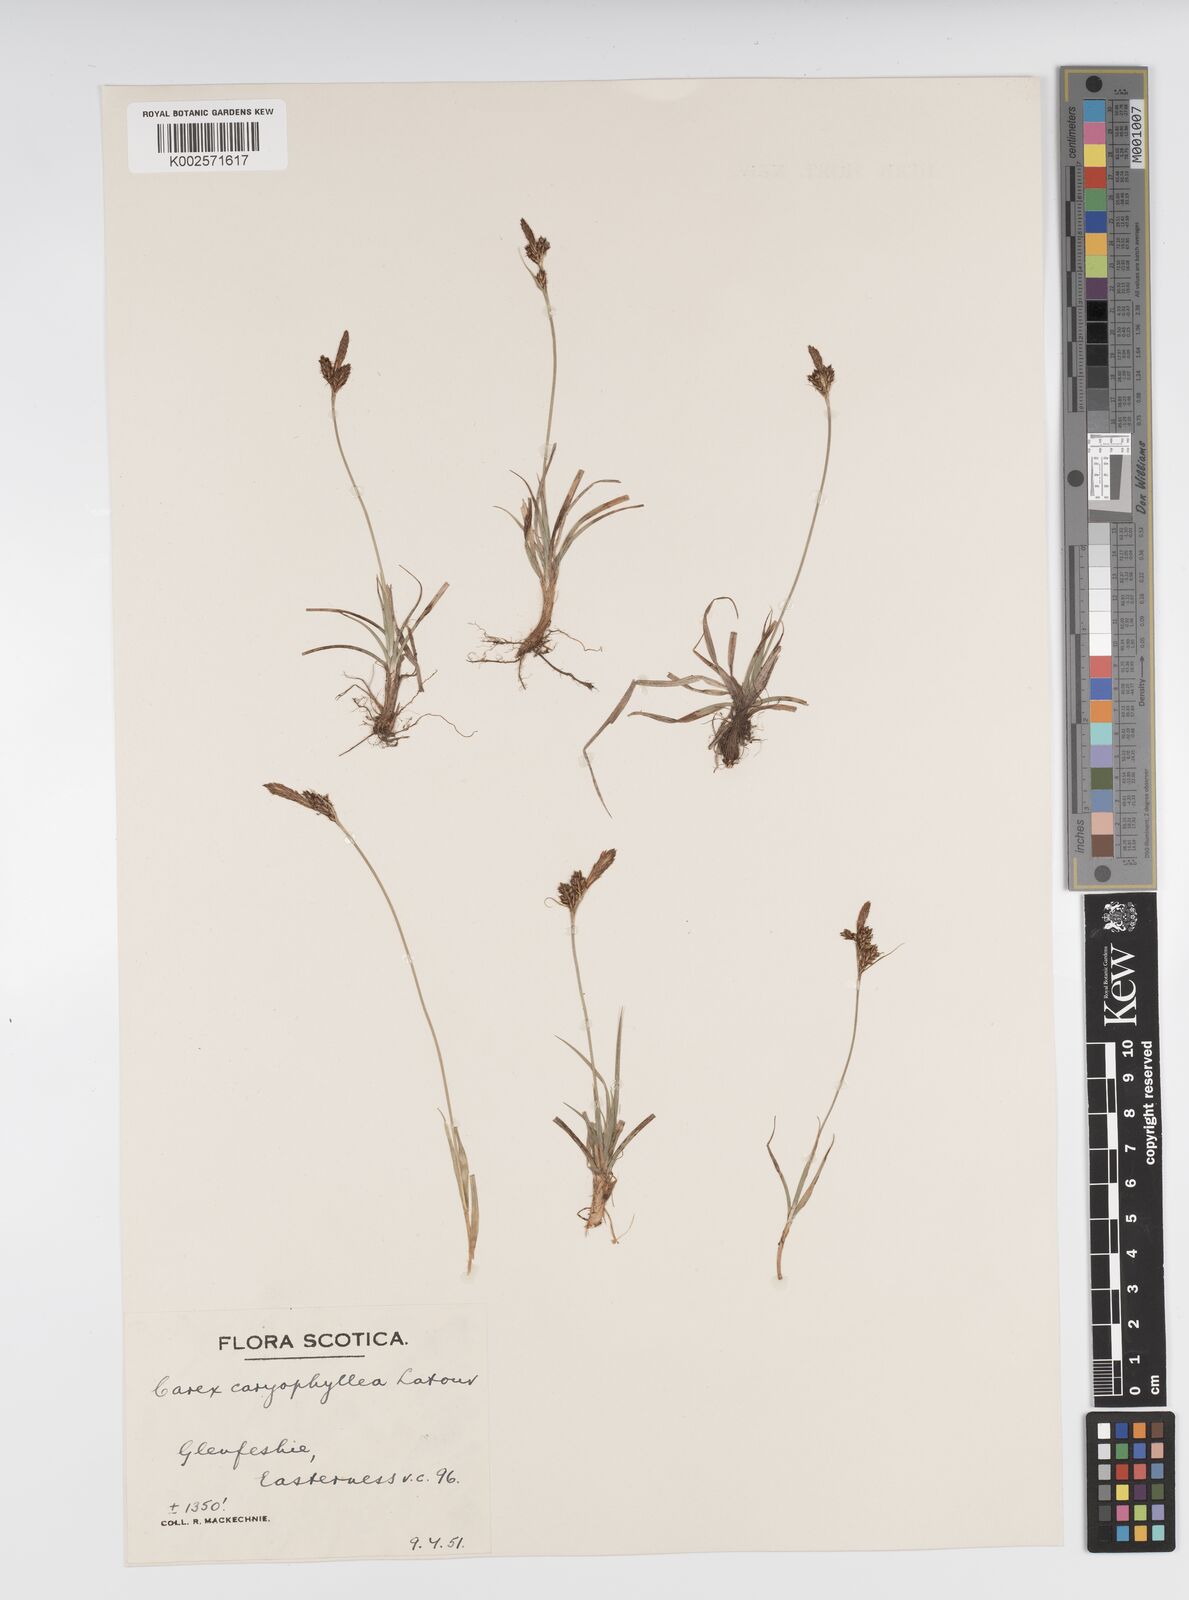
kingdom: Plantae
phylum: Tracheophyta
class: Liliopsida
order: Poales
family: Cyperaceae
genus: Carex
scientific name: Carex caryophyllea
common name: Spring sedge
